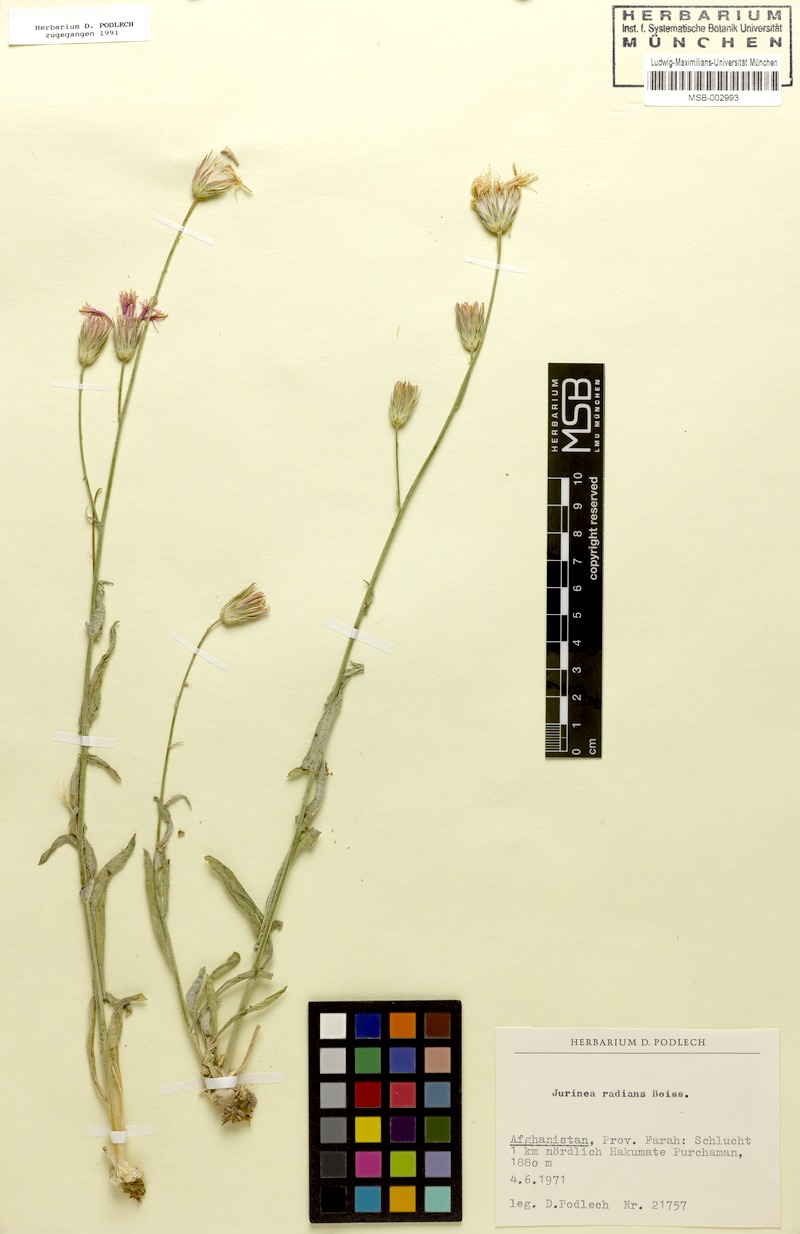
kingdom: Plantae
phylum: Tracheophyta
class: Magnoliopsida
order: Asterales
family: Asteraceae
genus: Jurinea
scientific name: Jurinea shahrestanica
